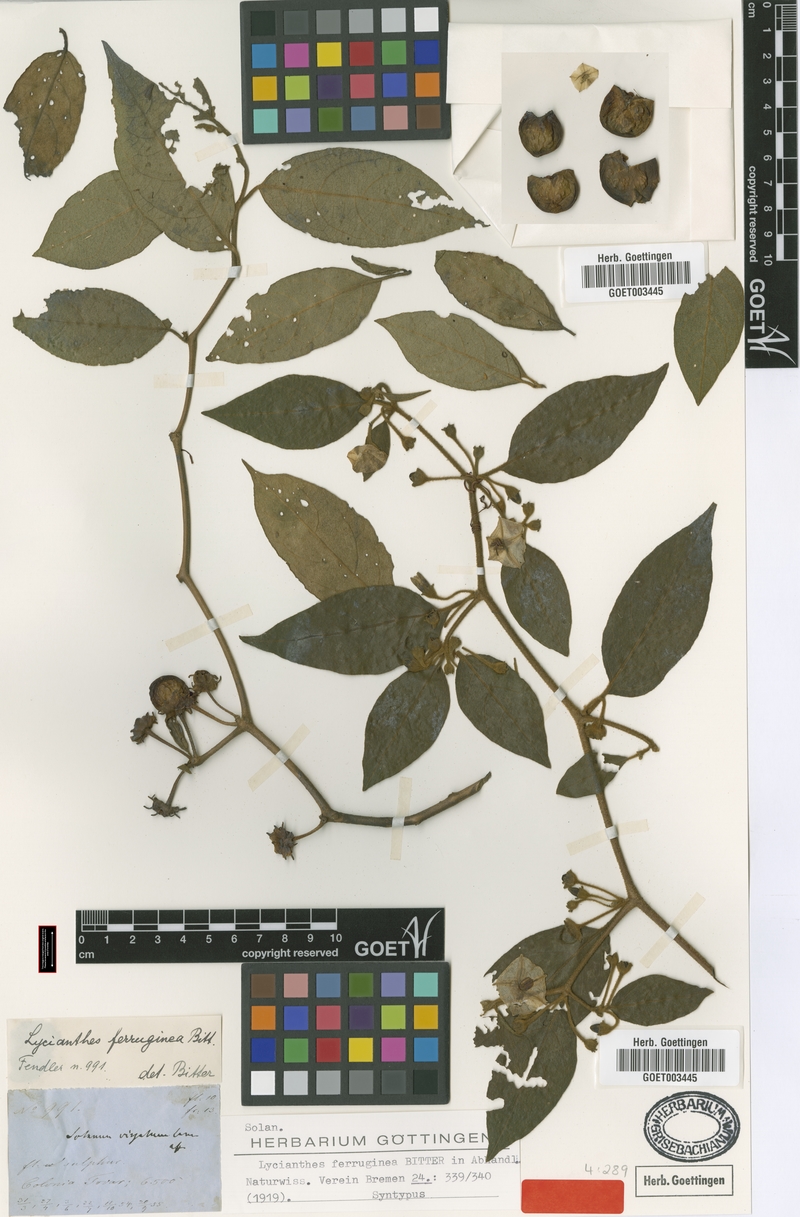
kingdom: Plantae
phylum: Tracheophyta
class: Magnoliopsida
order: Solanales
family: Solanaceae
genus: Lycianthes
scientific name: Lycianthes ferruginea
